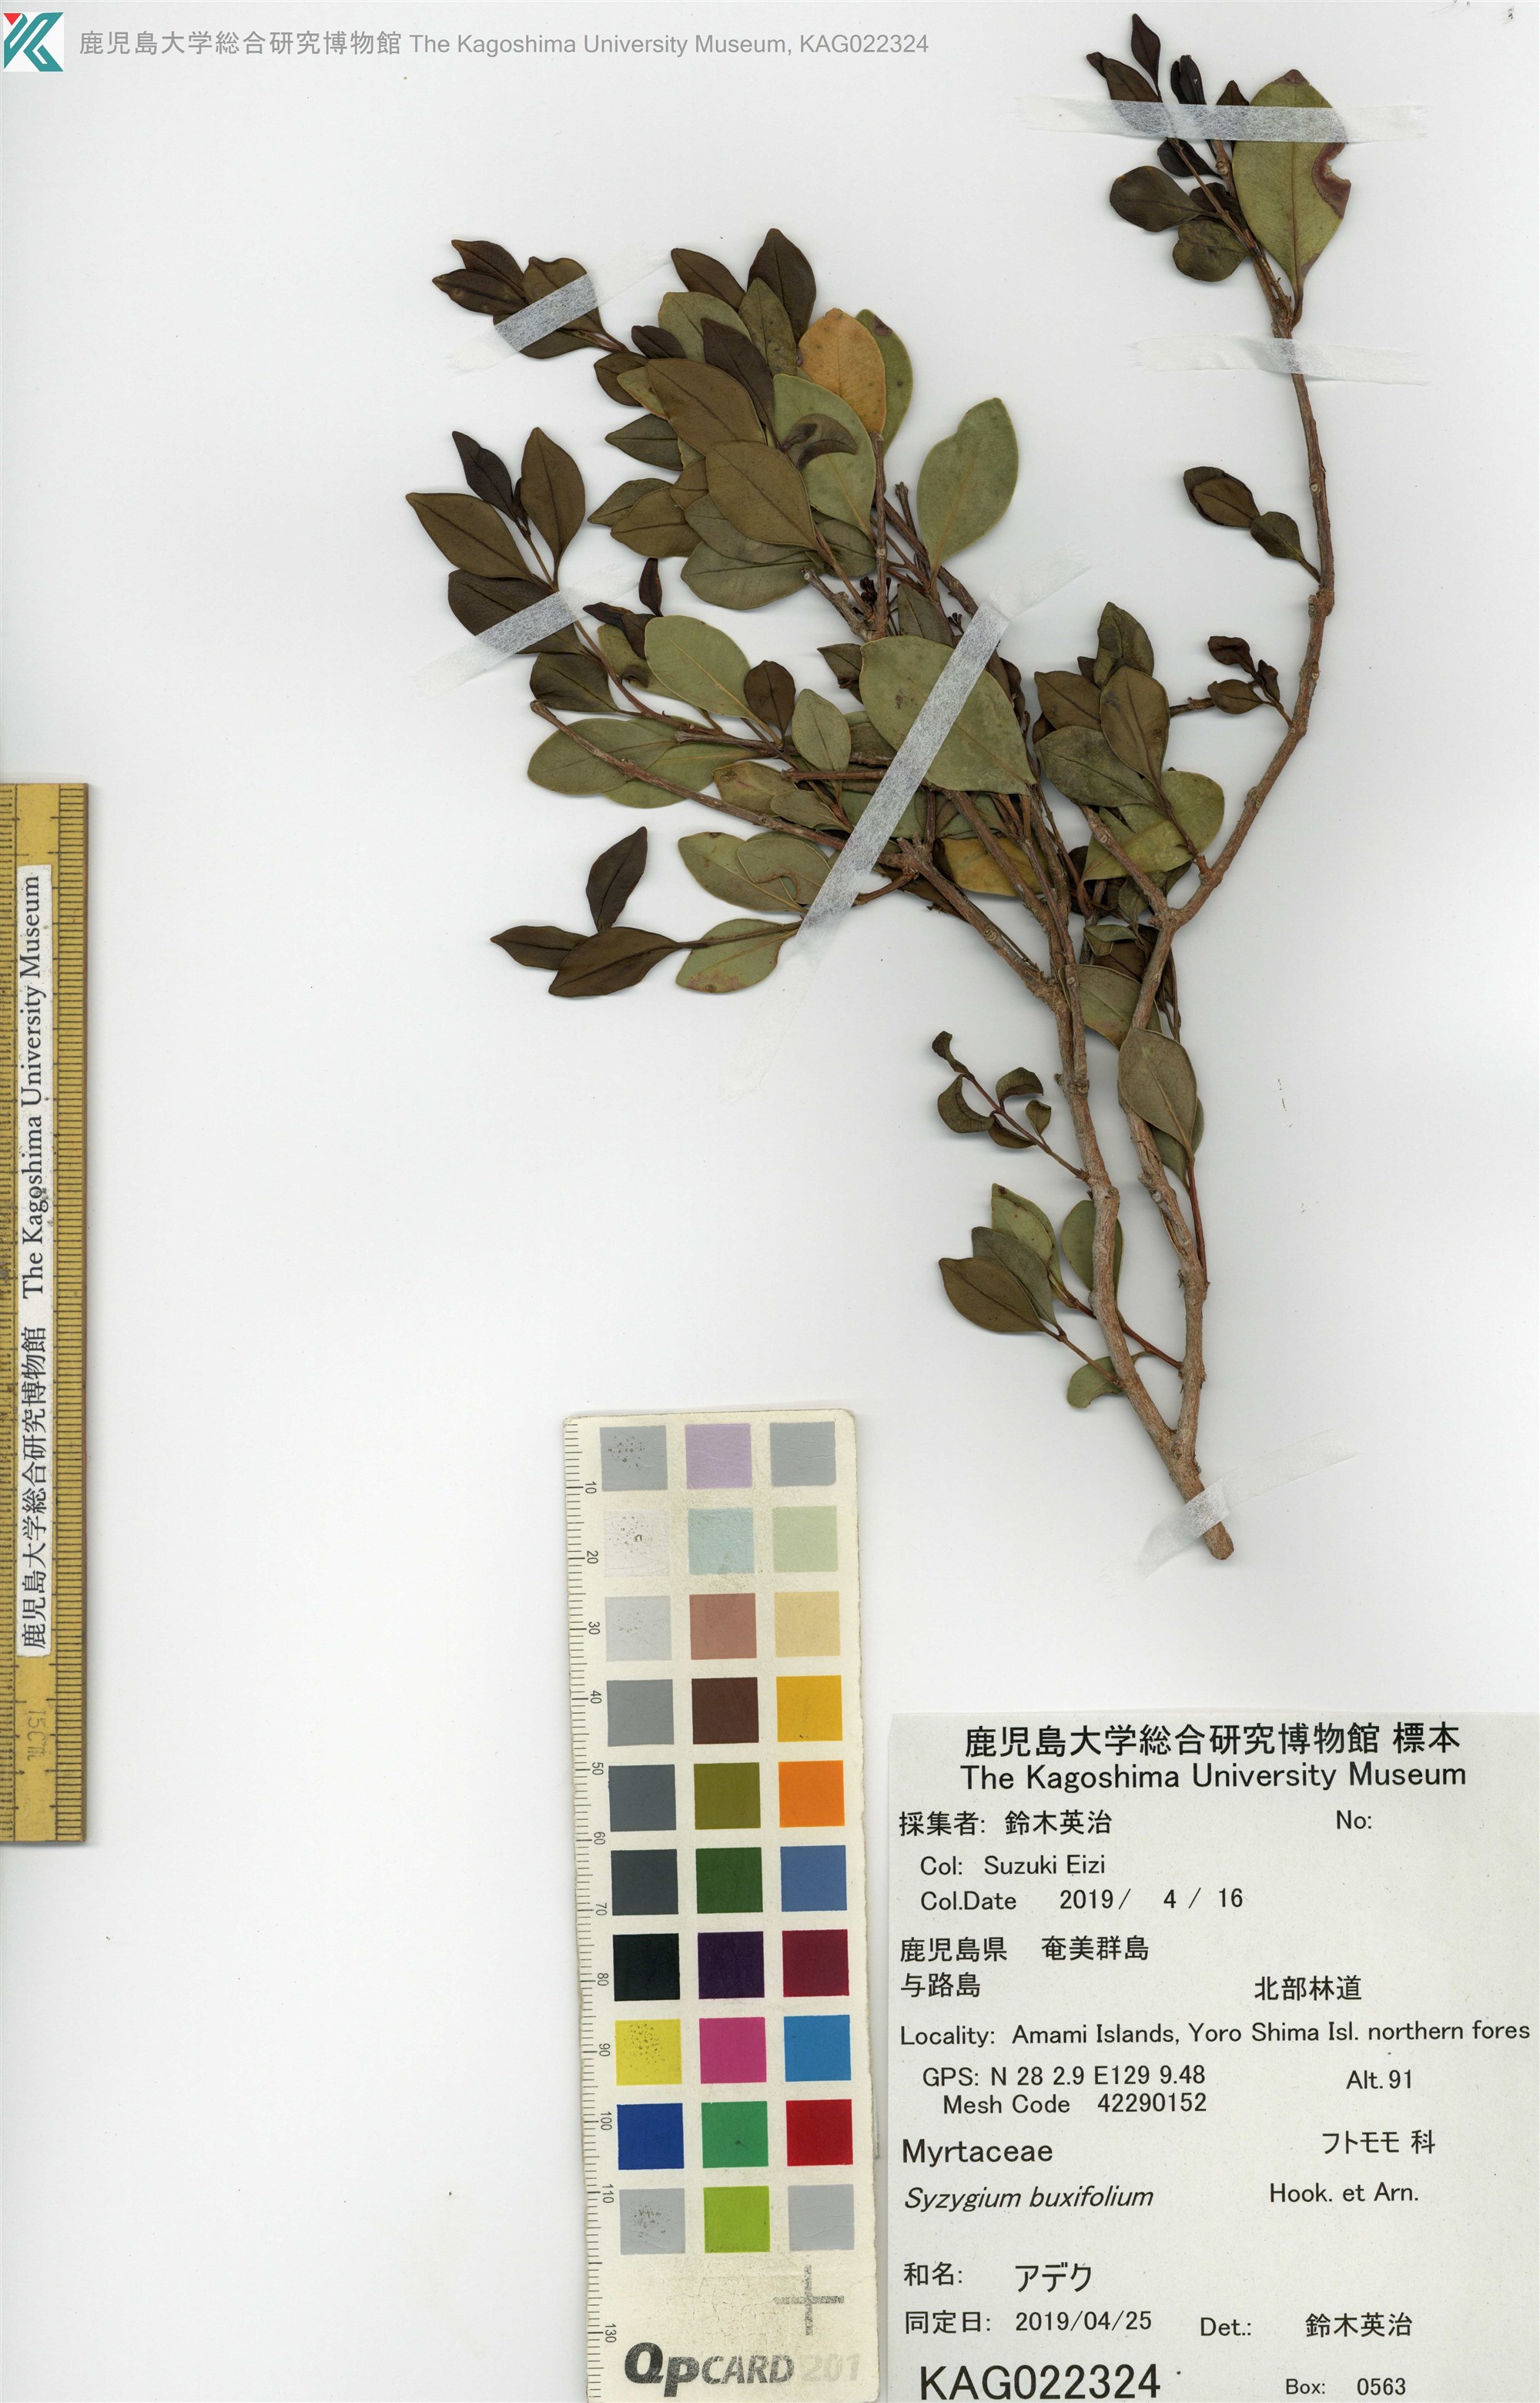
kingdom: Plantae
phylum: Tracheophyta
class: Magnoliopsida
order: Myrtales
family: Myrtaceae
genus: Syzygium
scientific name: Syzygium buxifolium
